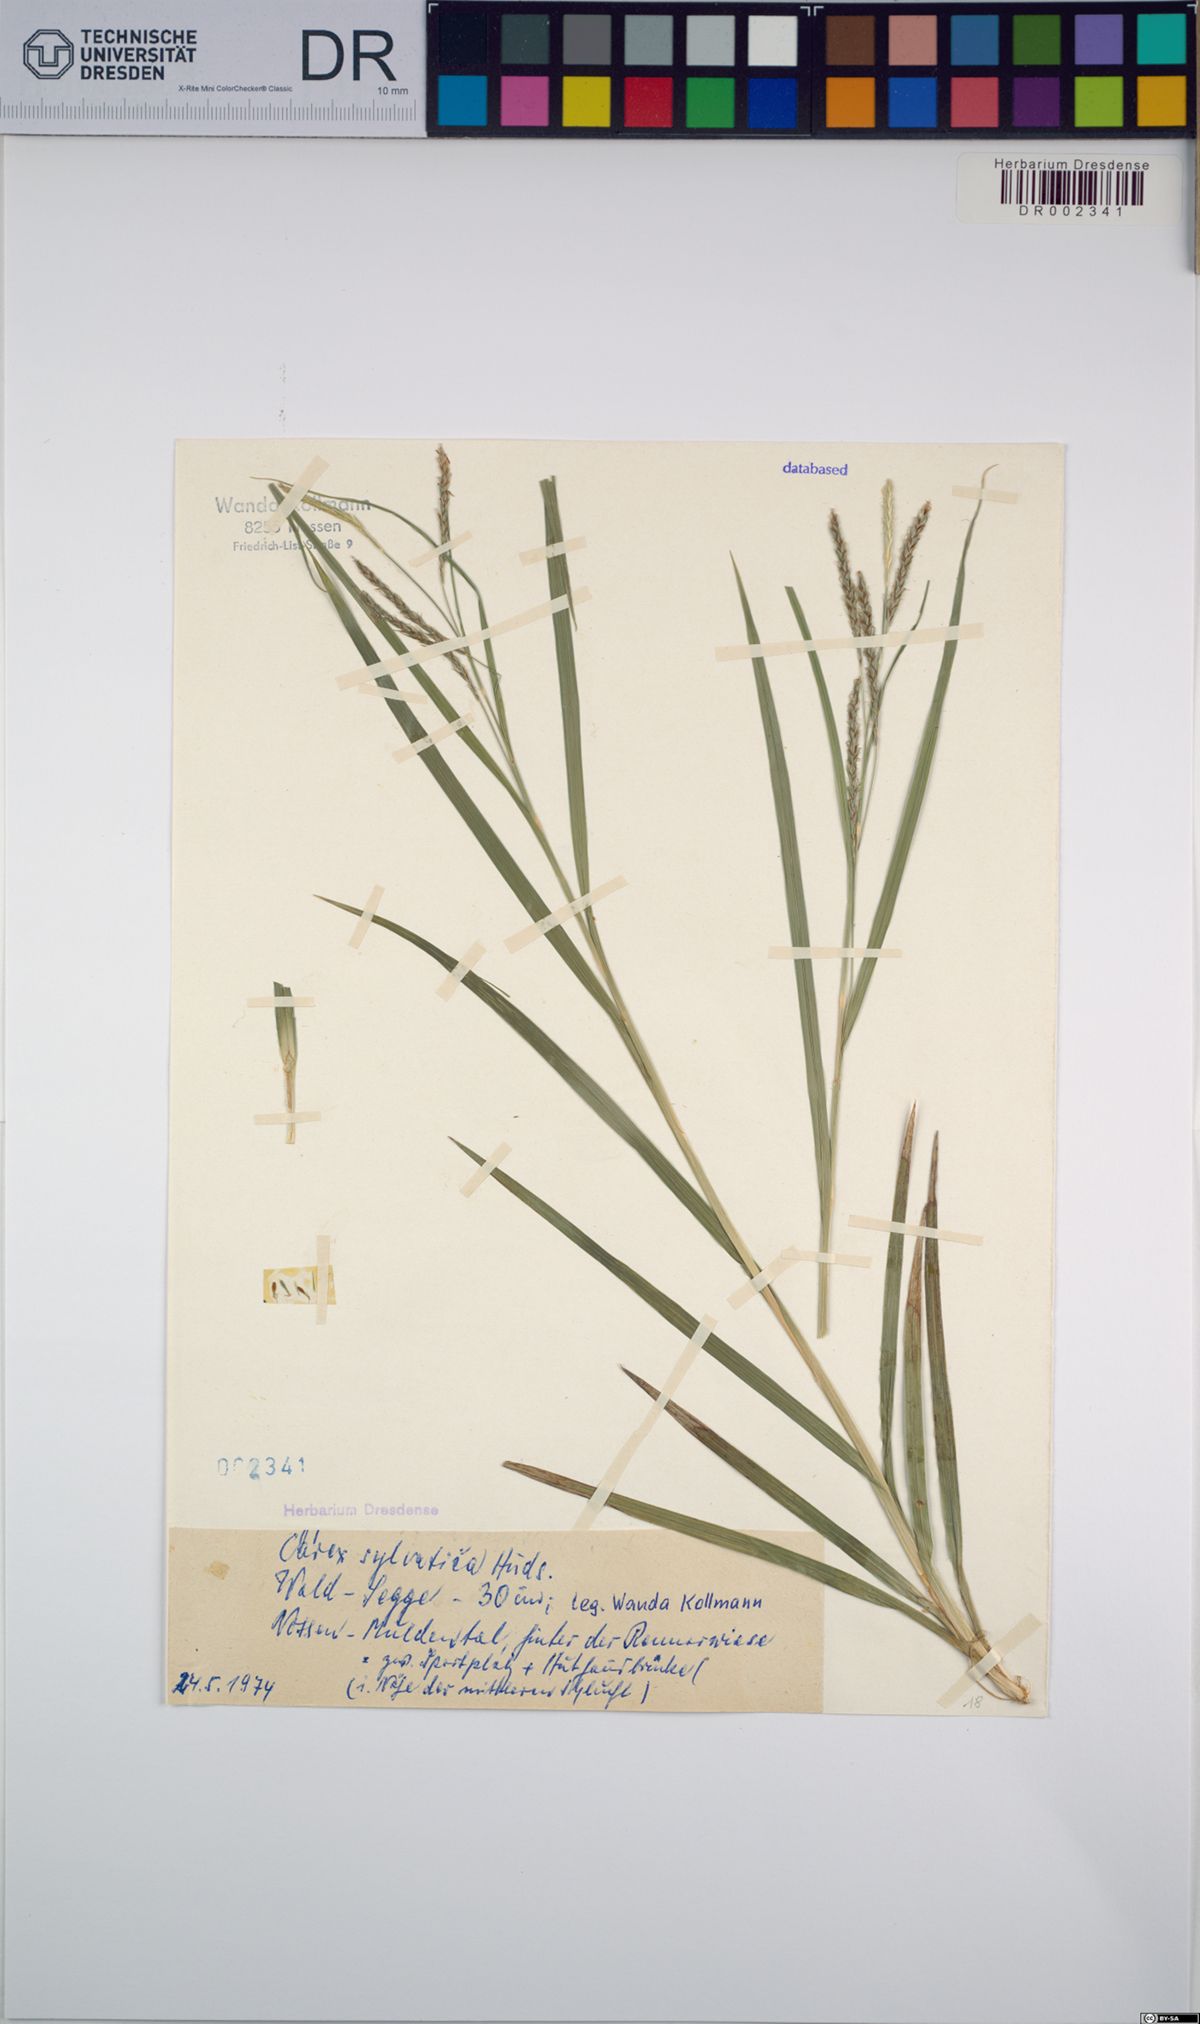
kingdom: Plantae
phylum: Tracheophyta
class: Liliopsida
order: Poales
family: Cyperaceae
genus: Carex
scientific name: Carex sylvatica
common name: Wood-sedge
